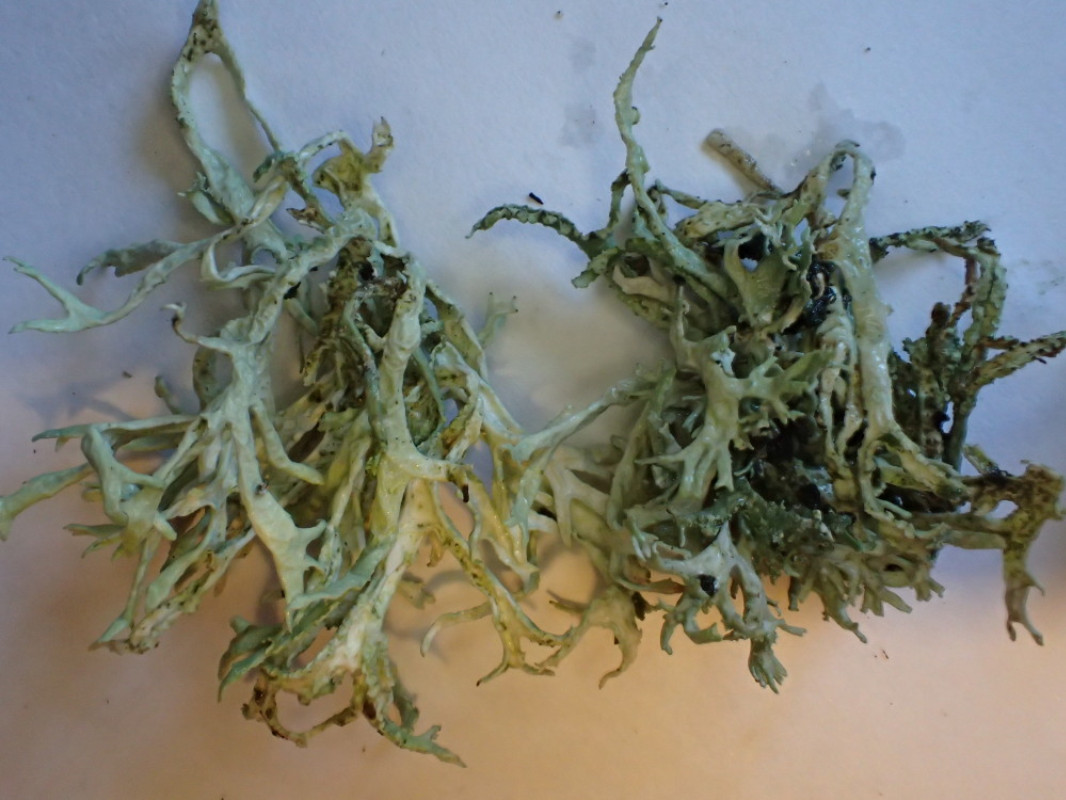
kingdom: Fungi
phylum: Ascomycota
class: Lecanoromycetes
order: Lecanorales
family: Ramalinaceae
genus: Ramalina
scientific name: Ramalina farinacea
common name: melet grenlav
